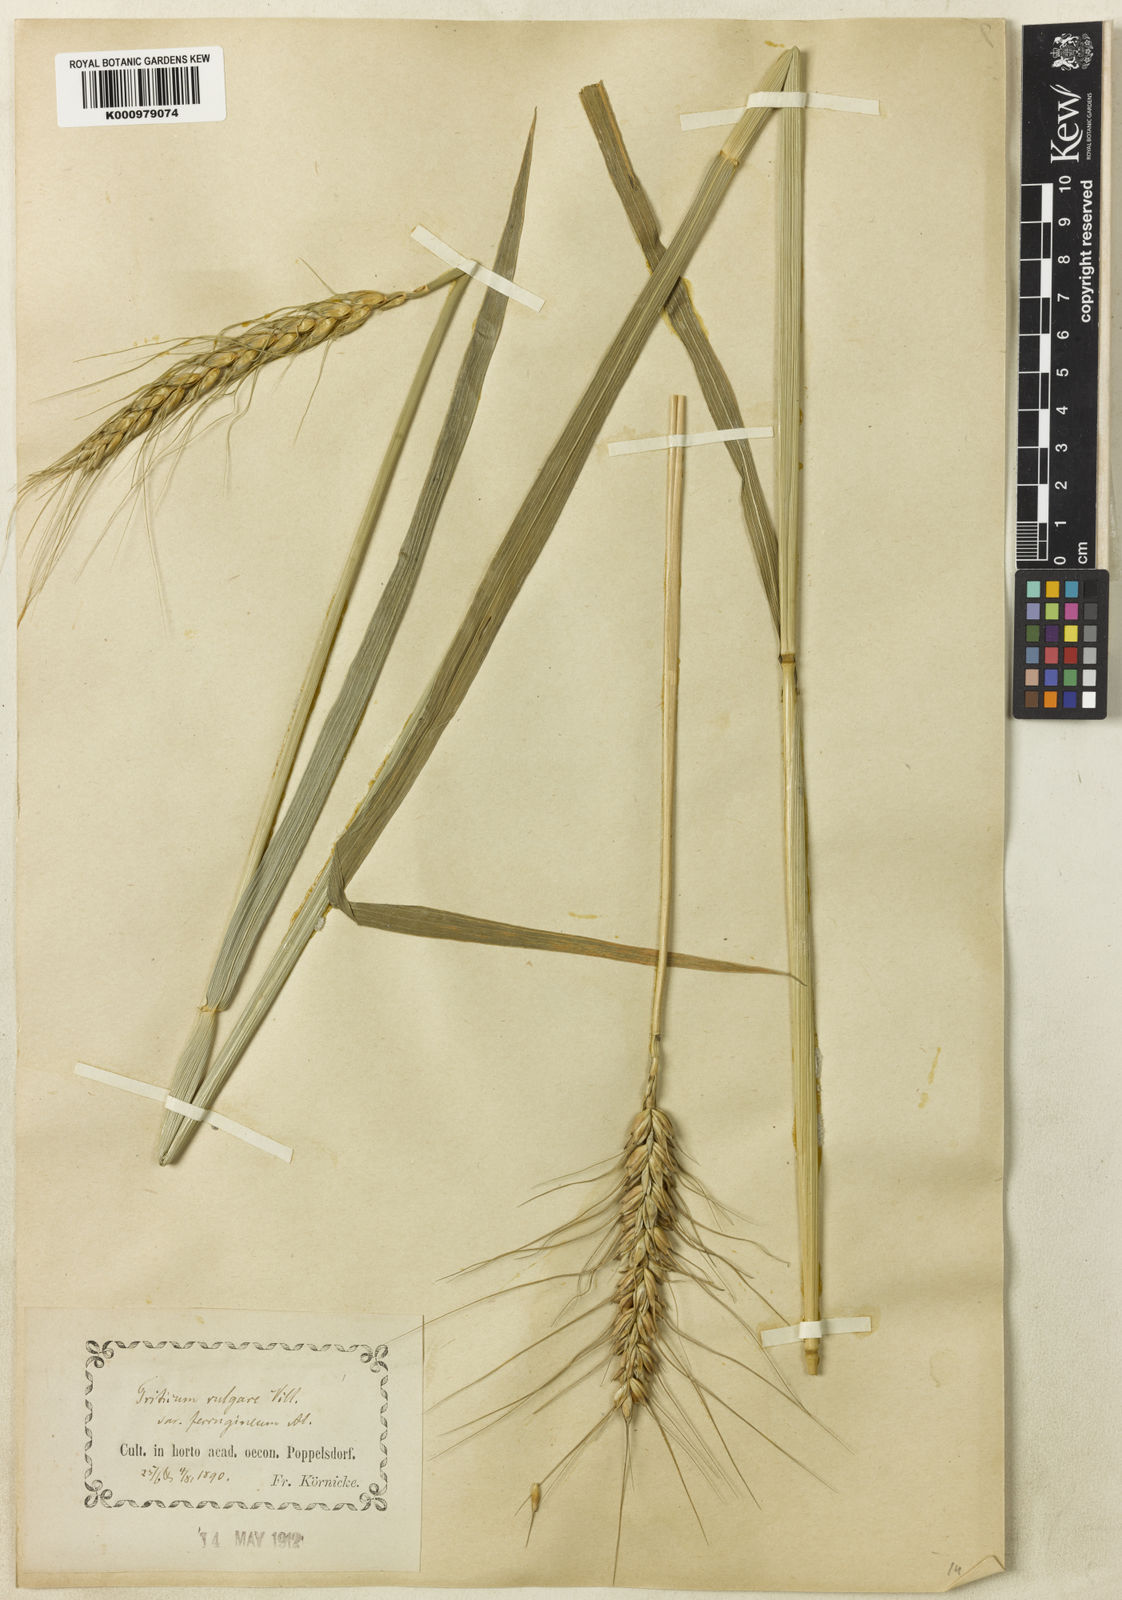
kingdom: Plantae
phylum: Tracheophyta
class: Liliopsida
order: Poales
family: Poaceae
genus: Triticum
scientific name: Triticum aestivum
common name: Common wheat
